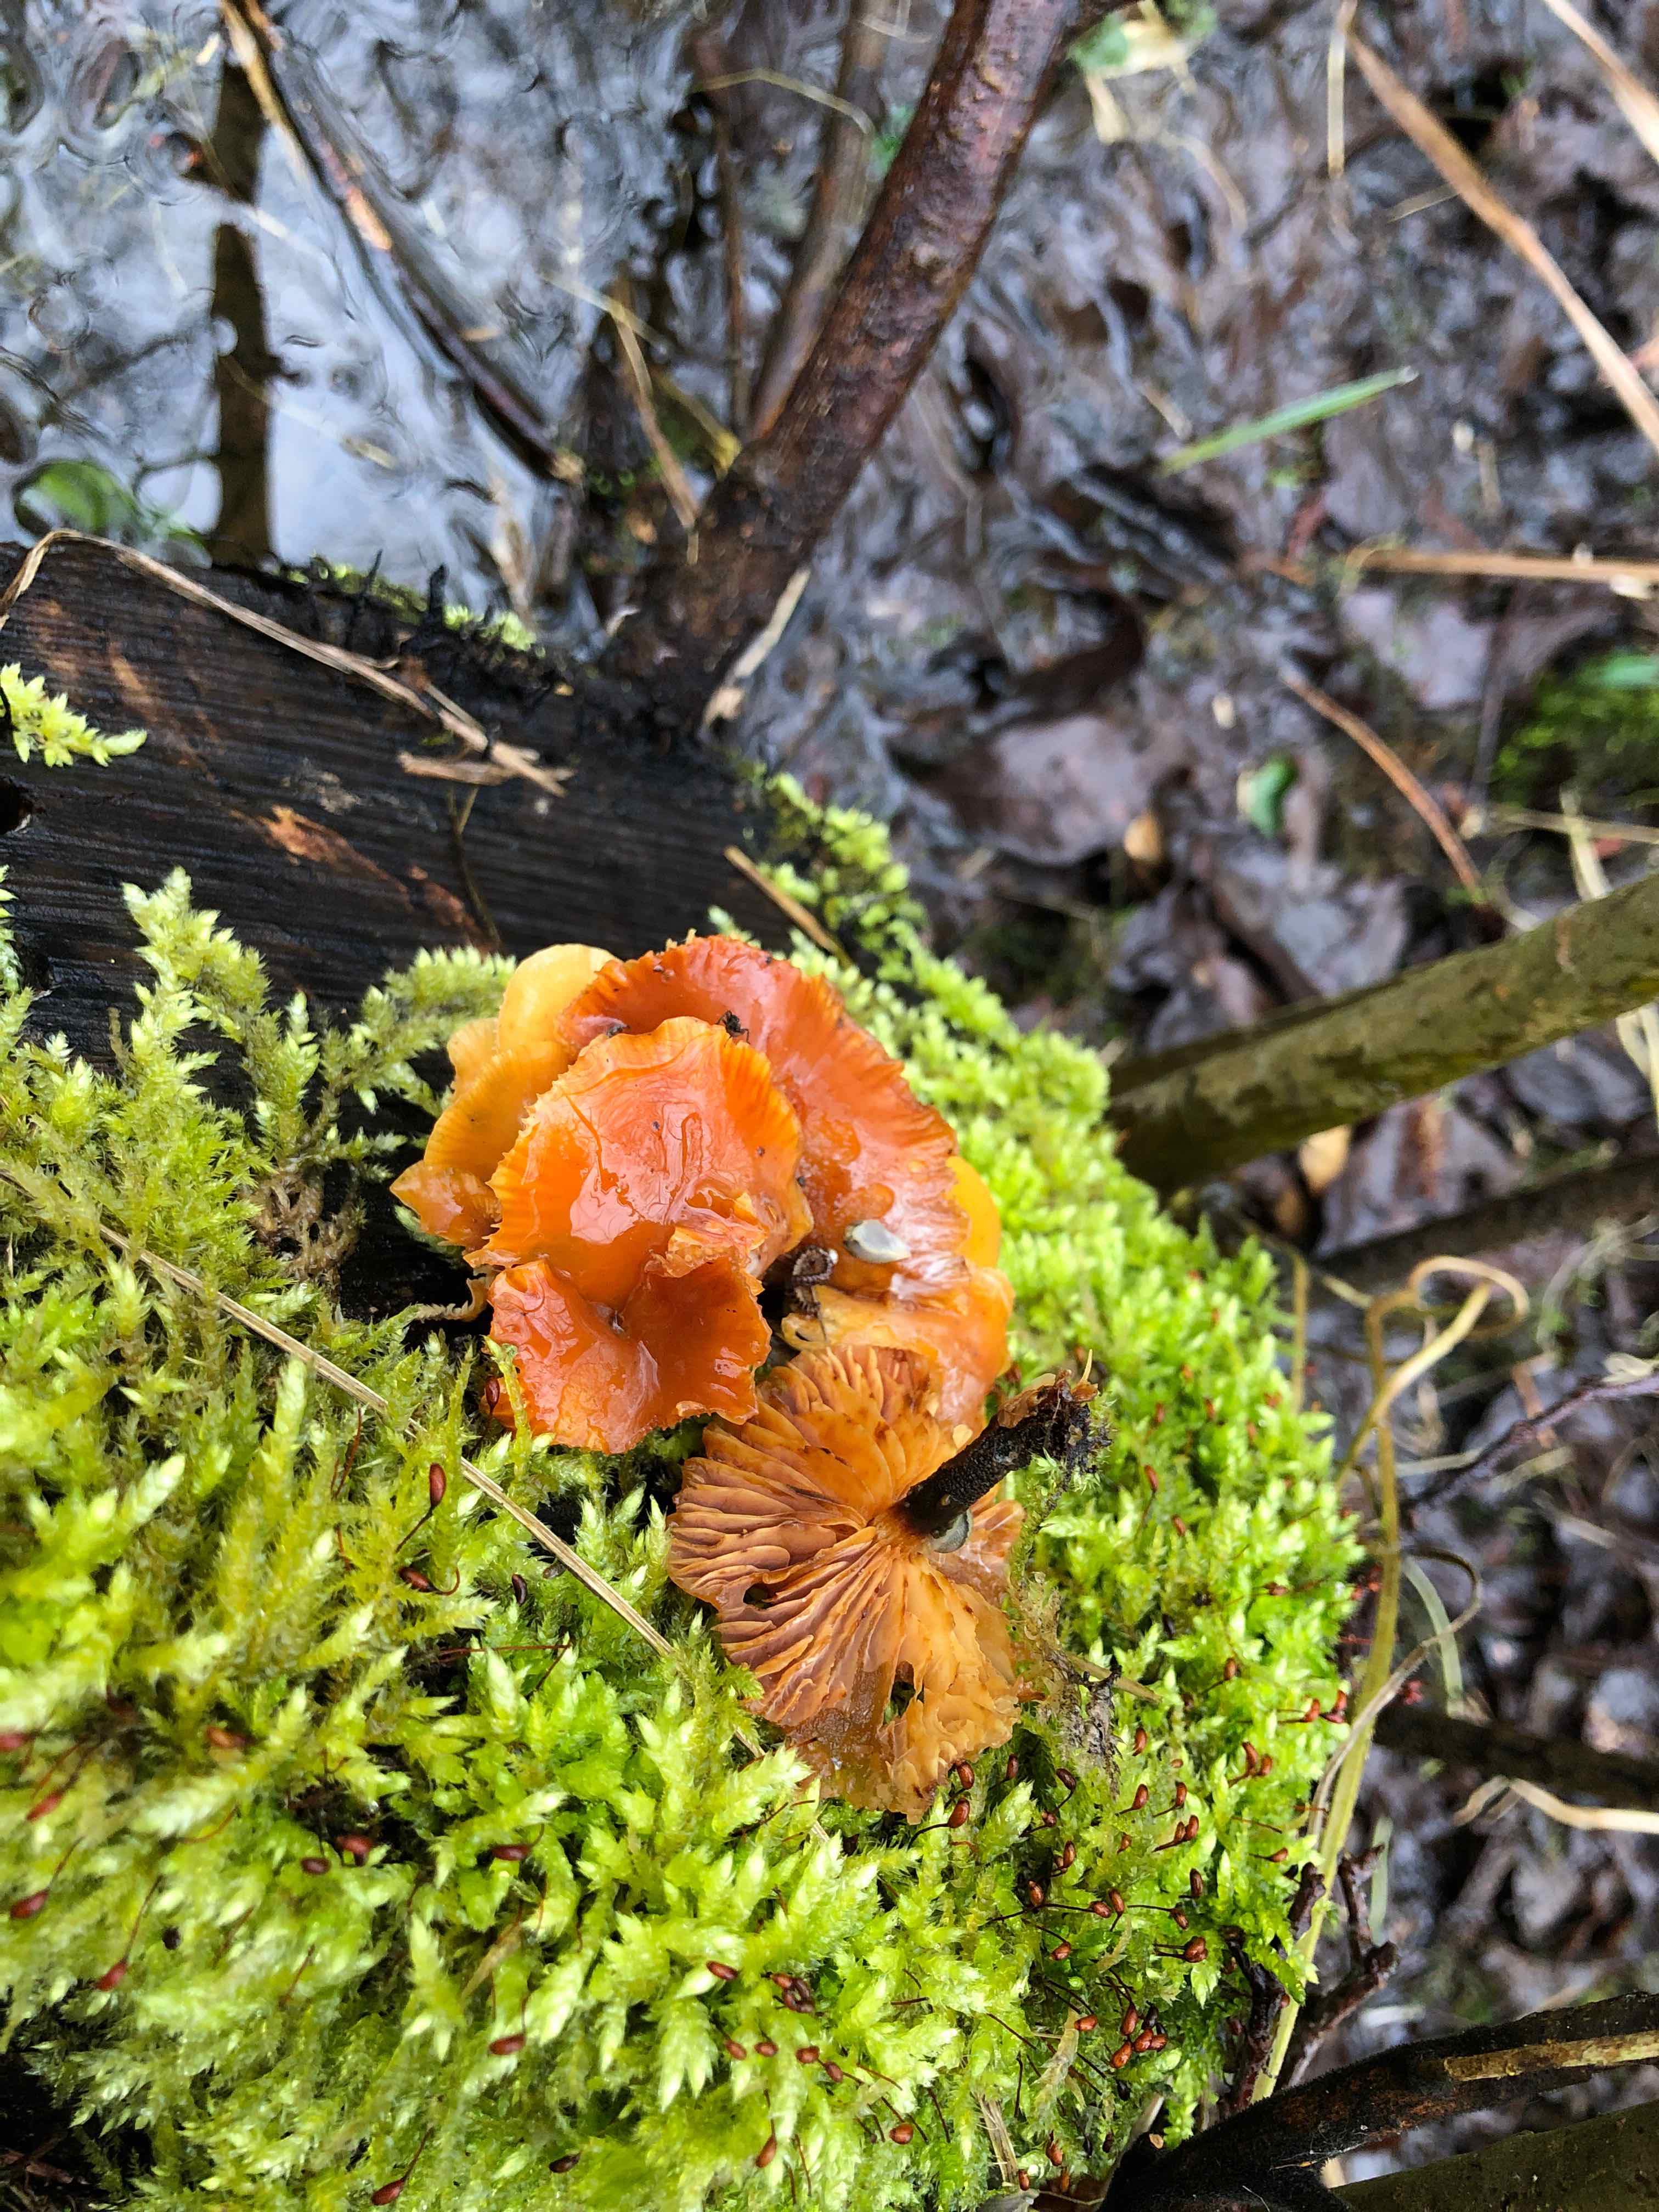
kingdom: Fungi
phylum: Basidiomycota
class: Agaricomycetes
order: Agaricales
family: Physalacriaceae
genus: Flammulina
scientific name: Flammulina velutipes
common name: gul fløjlsfod
